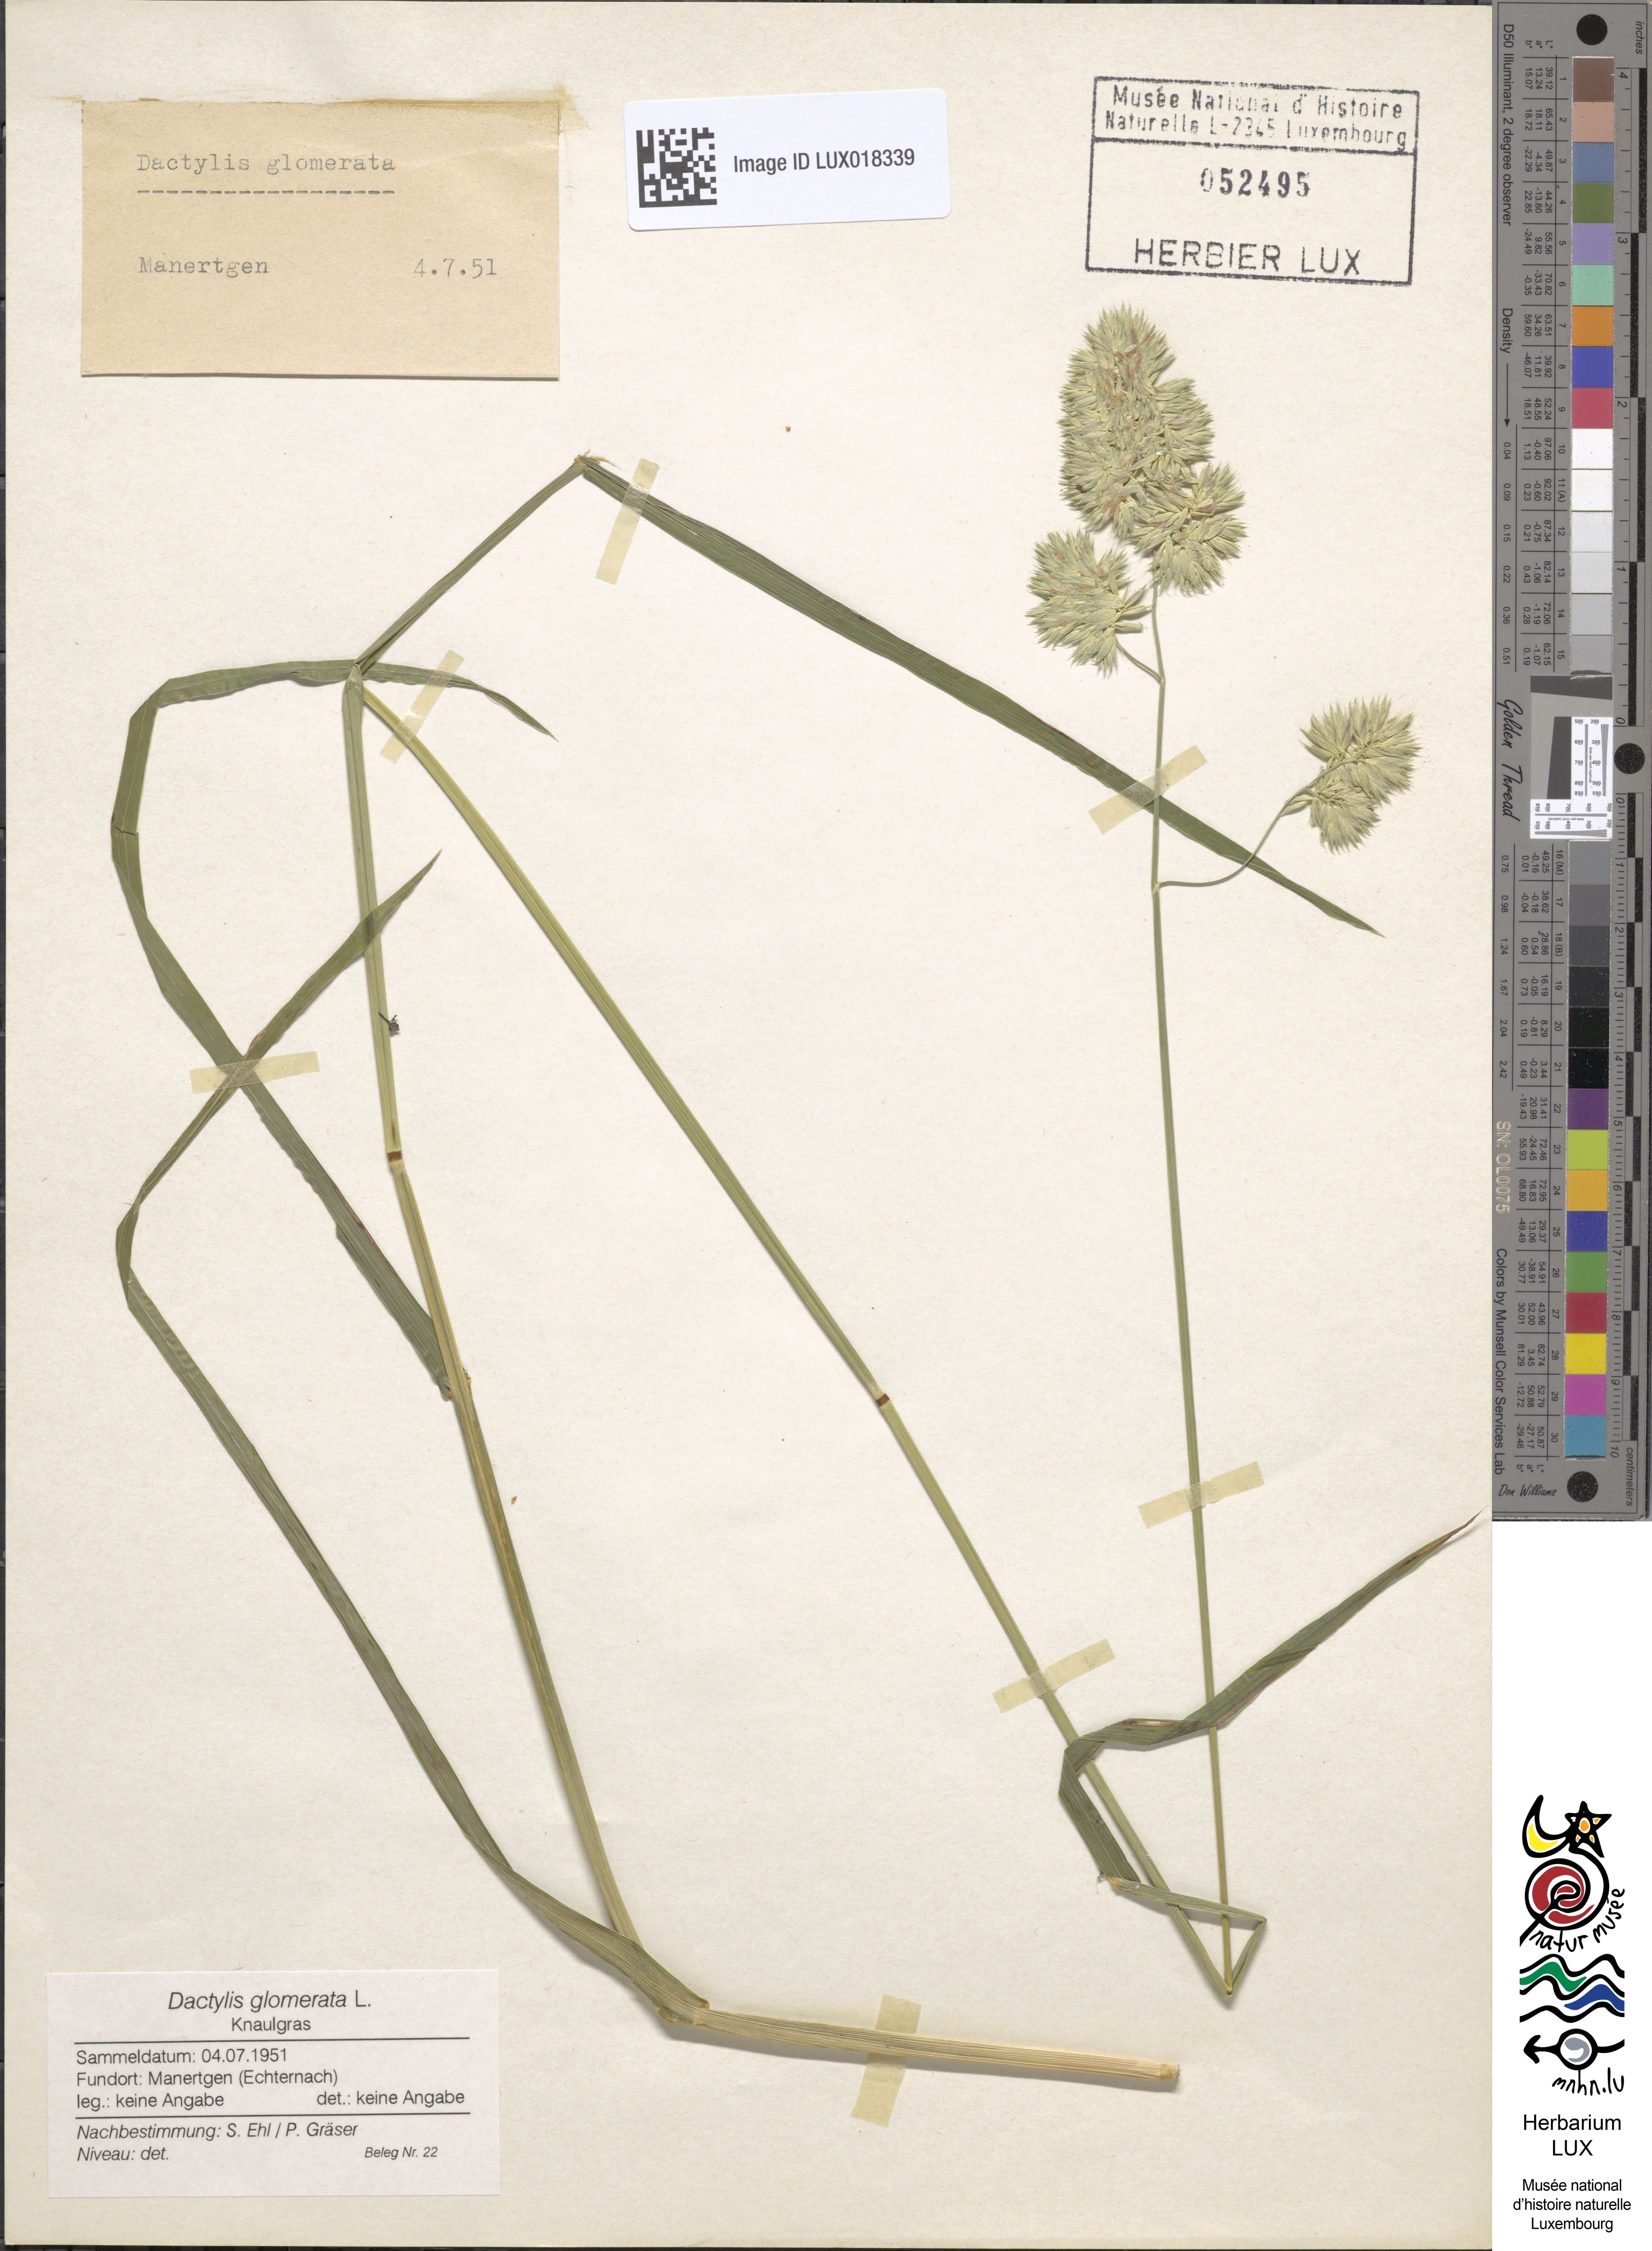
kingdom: Plantae
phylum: Tracheophyta
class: Liliopsida
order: Poales
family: Poaceae
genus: Dactylis
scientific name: Dactylis glomerata
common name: Orchardgrass
